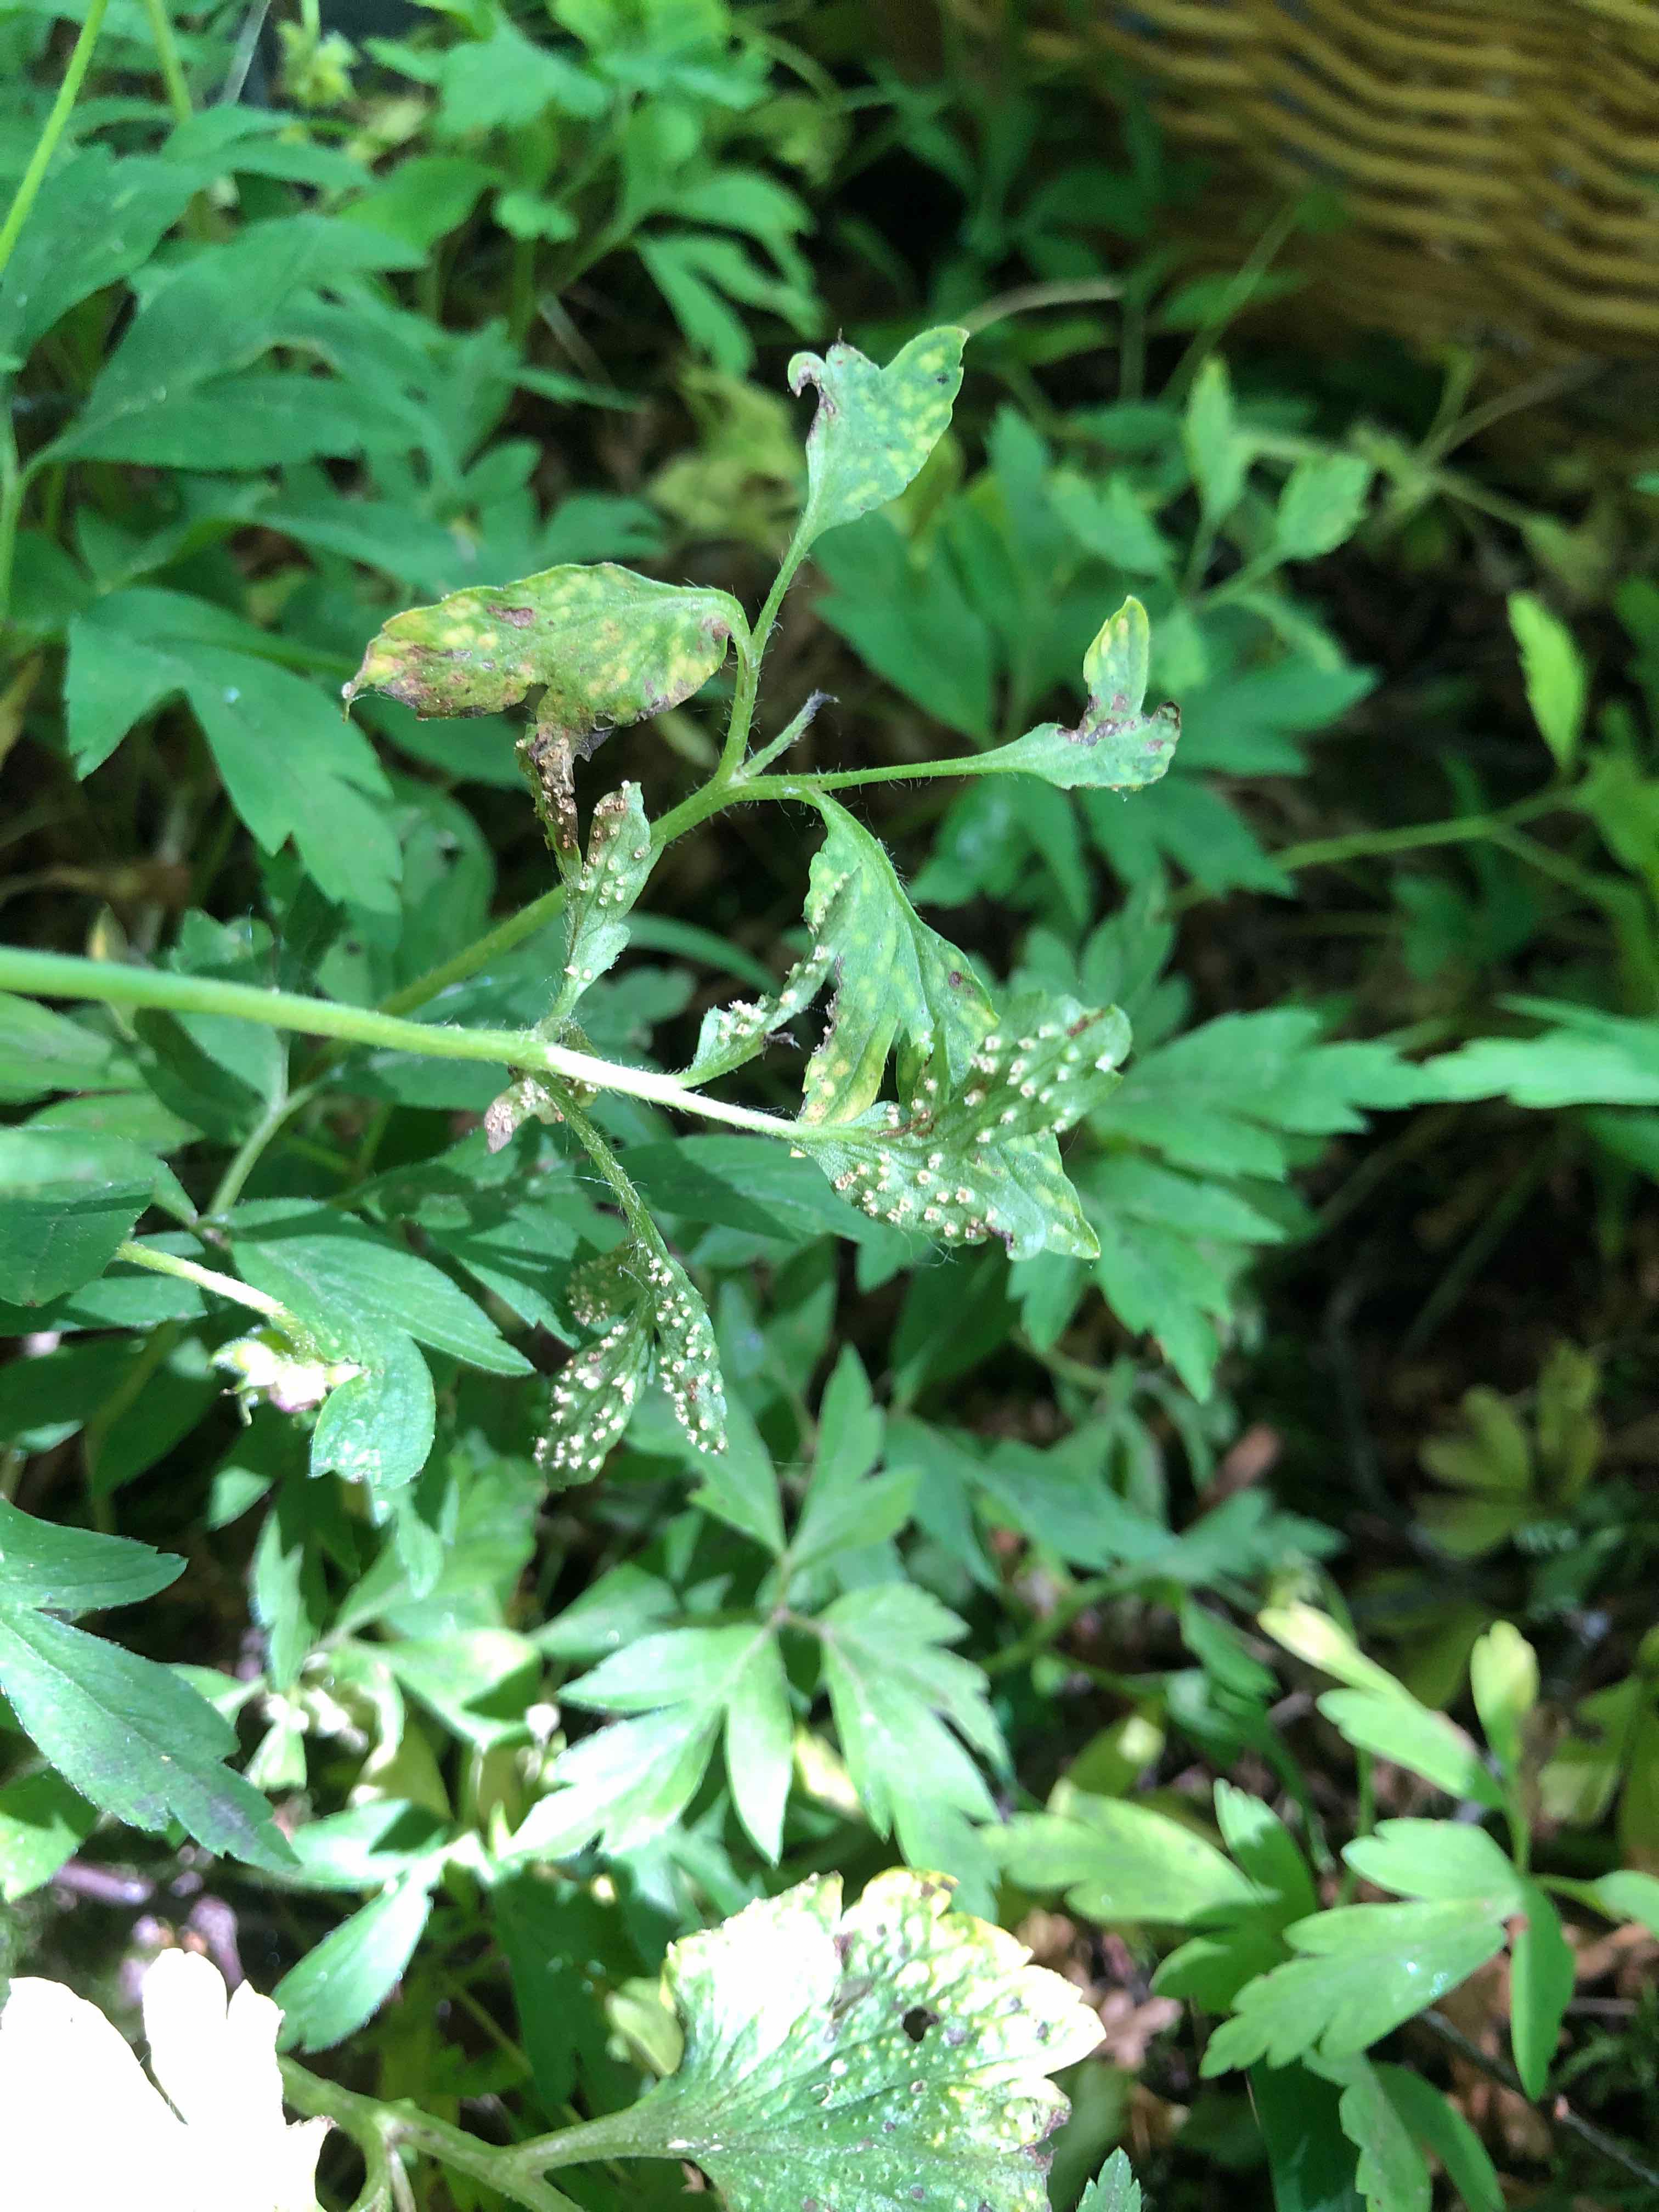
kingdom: Fungi
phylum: Basidiomycota
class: Pucciniomycetes
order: Pucciniales
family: Ochropsoraceae
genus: Ochropsora
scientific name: Ochropsora ariae
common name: anemone-okkerpletrust
